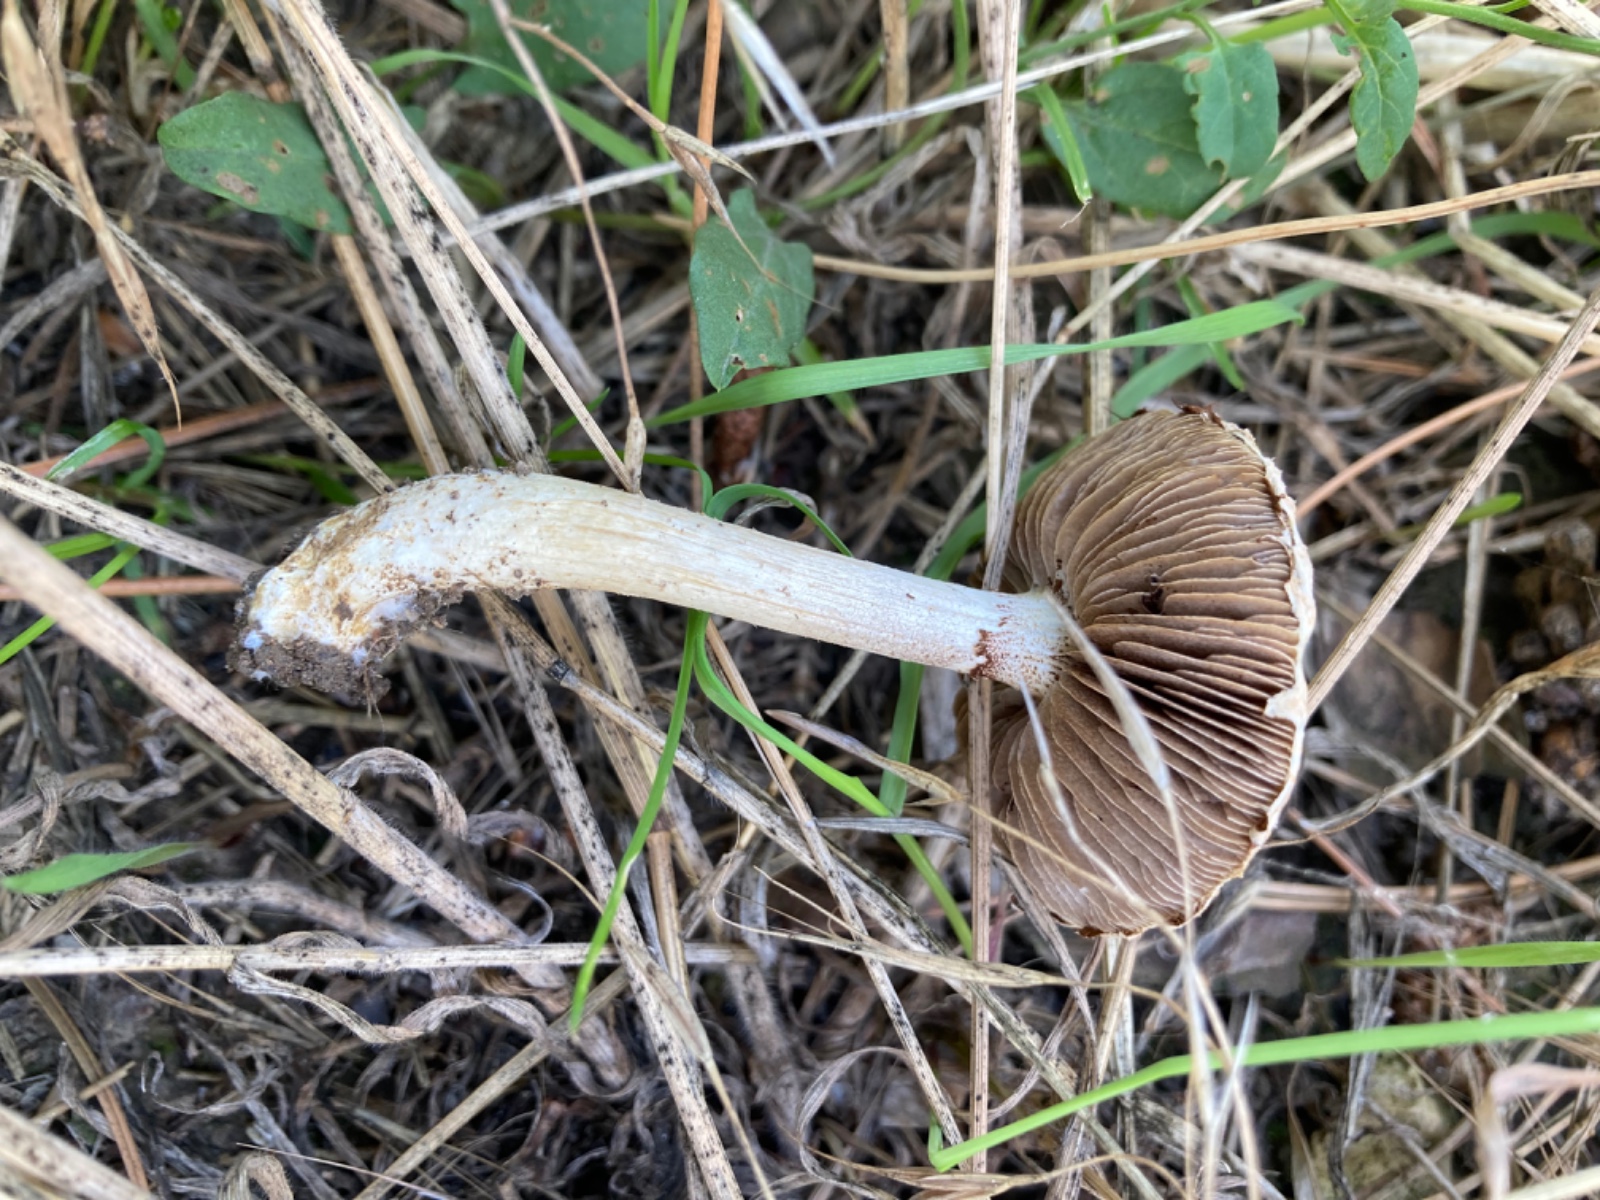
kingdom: Fungi
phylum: Basidiomycota
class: Agaricomycetes
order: Agaricales
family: Strophariaceae
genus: Agrocybe
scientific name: Agrocybe dura
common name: fastkødet agerhat
